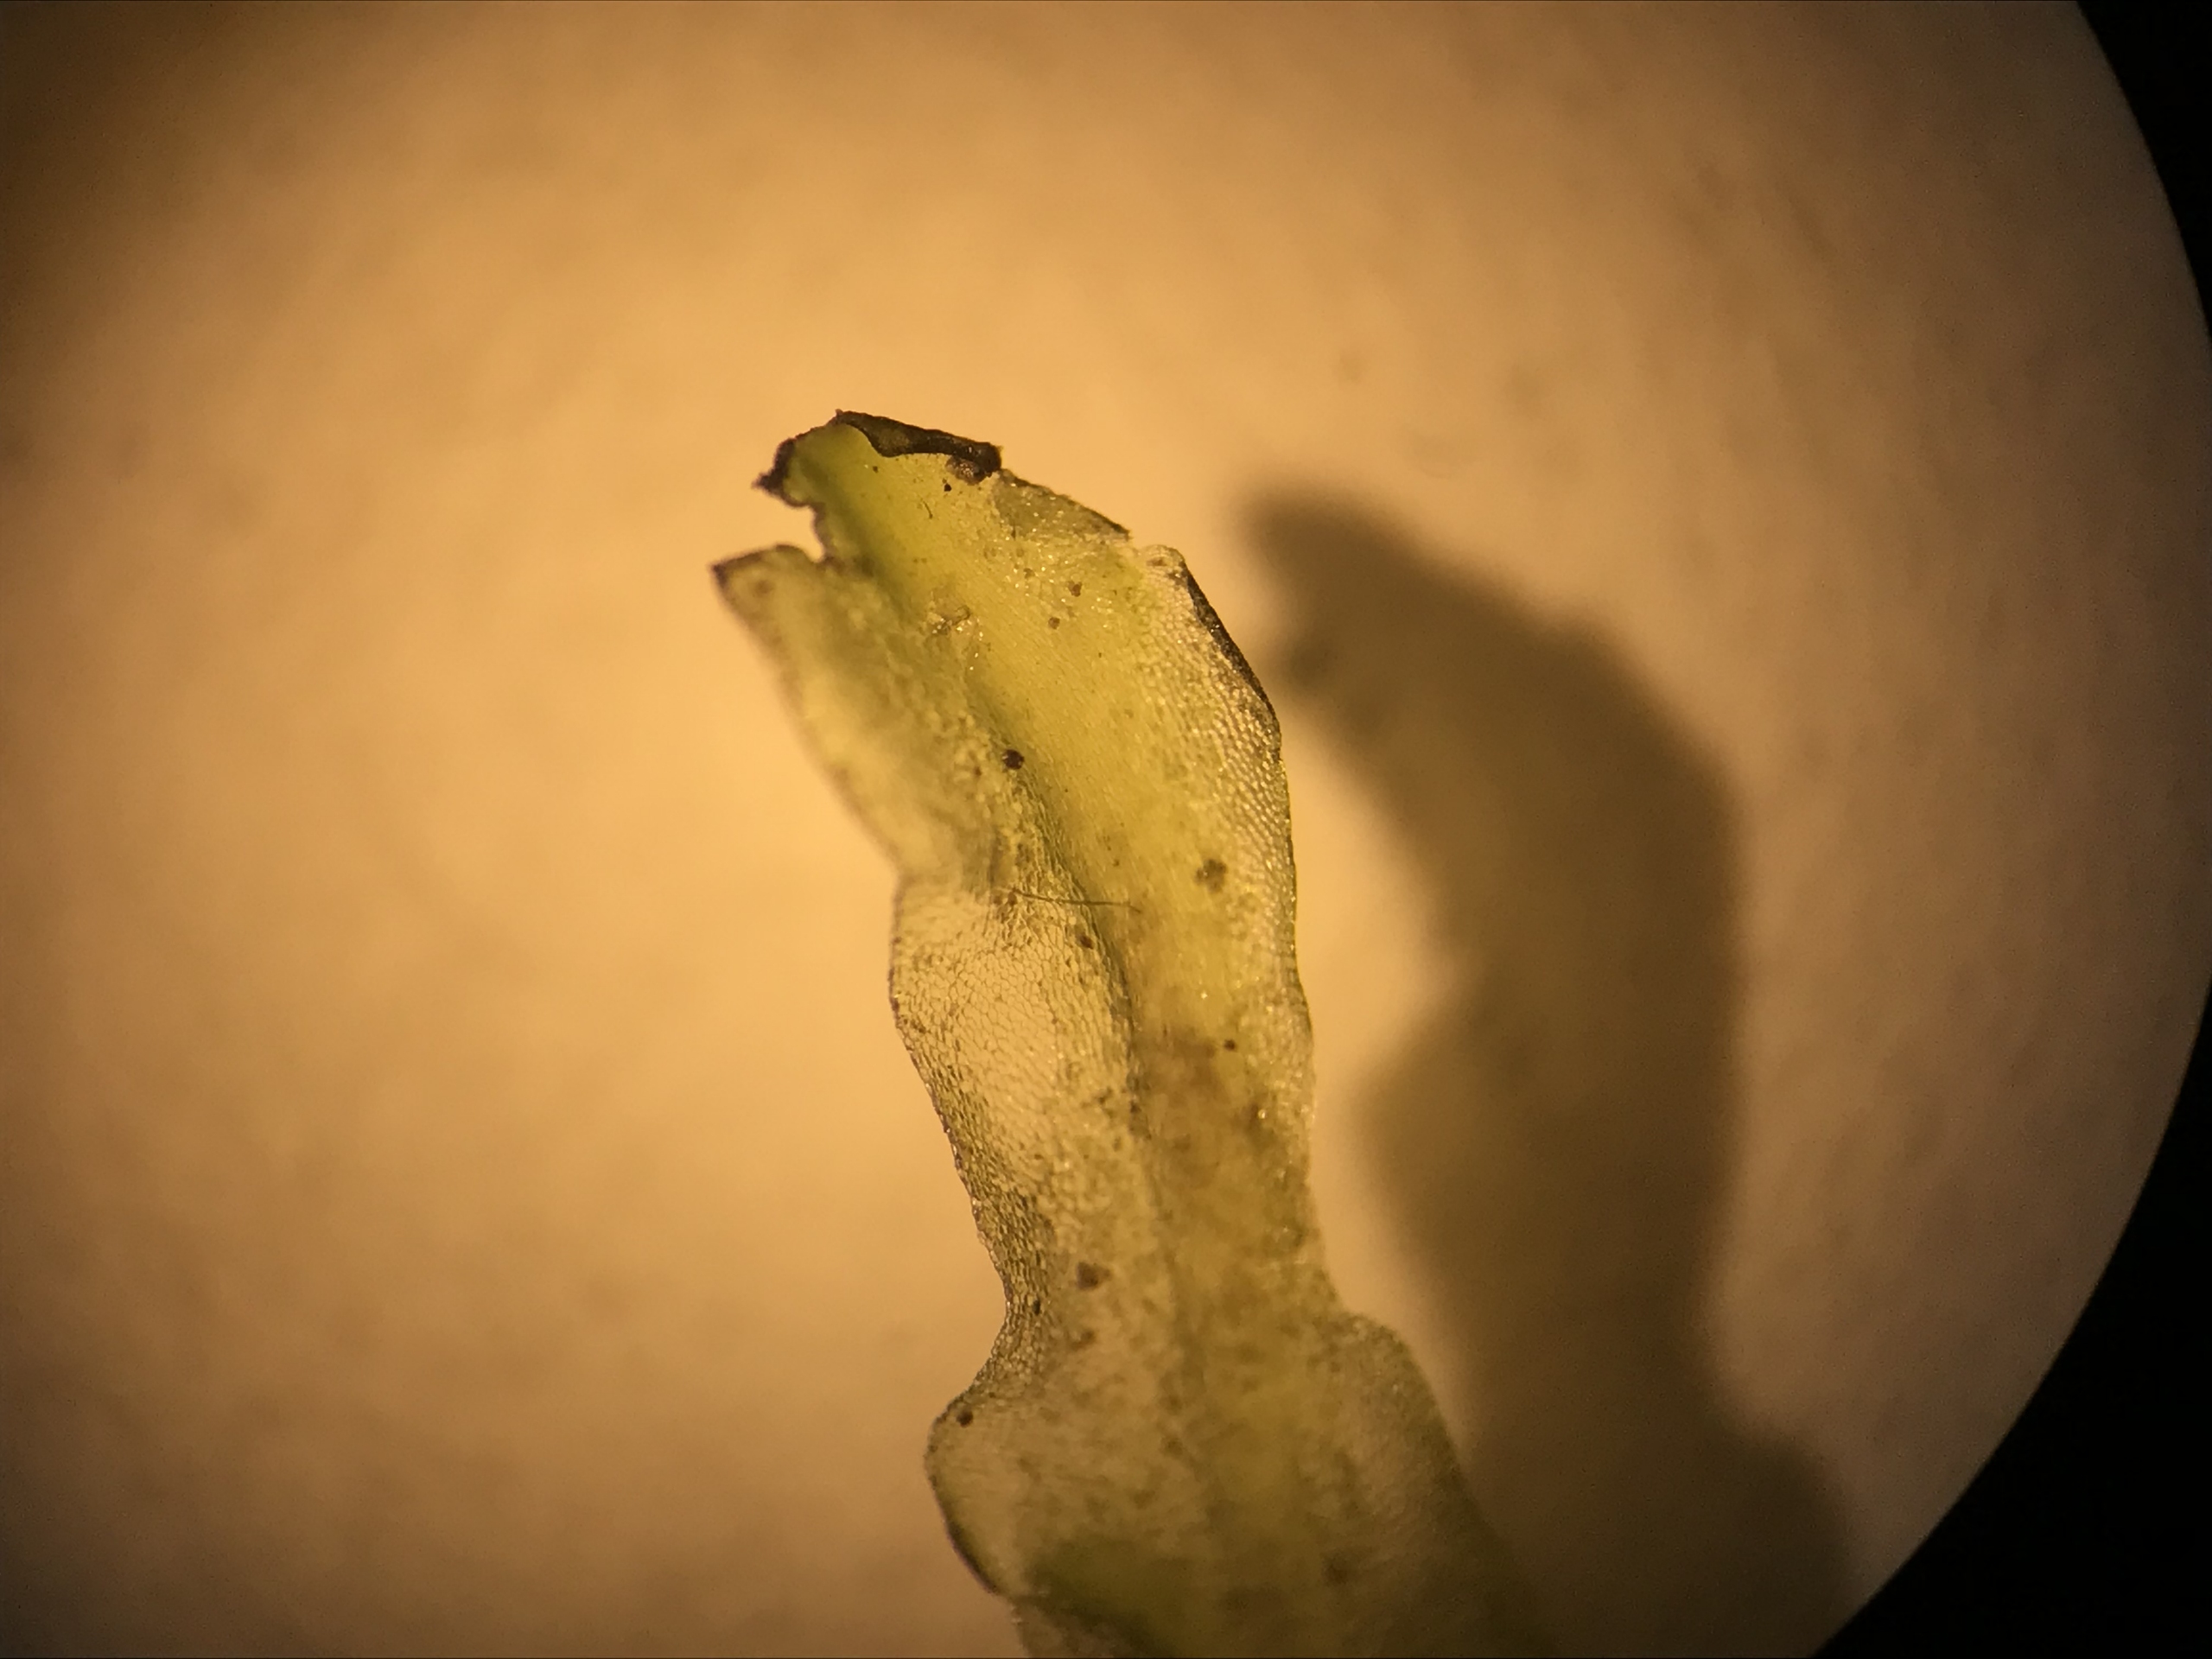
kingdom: Plantae
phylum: Marchantiophyta
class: Jungermanniopsida
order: Pelliales
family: Pelliaceae
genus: Pellia
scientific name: Pellia
